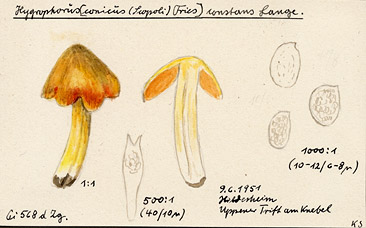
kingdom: Fungi
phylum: Basidiomycota
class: Agaricomycetes
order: Agaricales
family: Hygrophoraceae
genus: Hygrocybe
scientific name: Hygrocybe acutoconica
